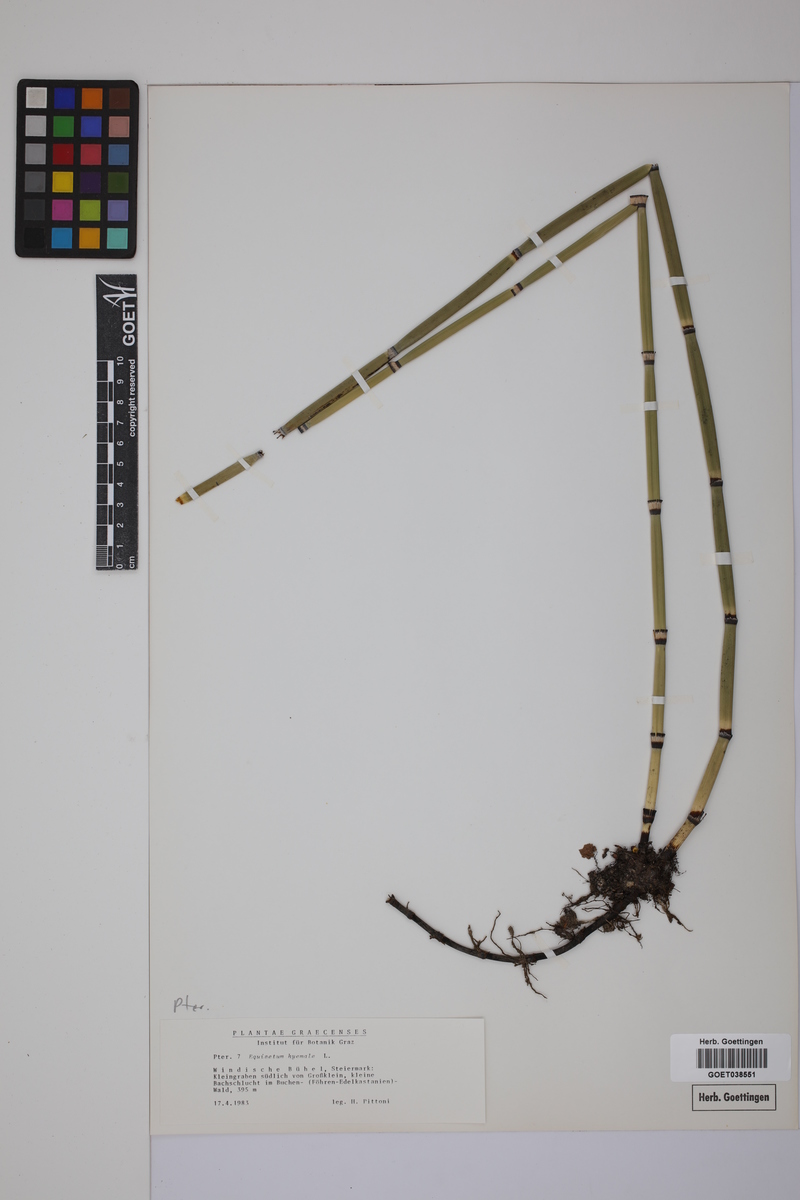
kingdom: Plantae
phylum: Tracheophyta
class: Polypodiopsida
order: Equisetales
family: Equisetaceae
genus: Equisetum
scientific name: Equisetum hyemale
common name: Rough horsetail
